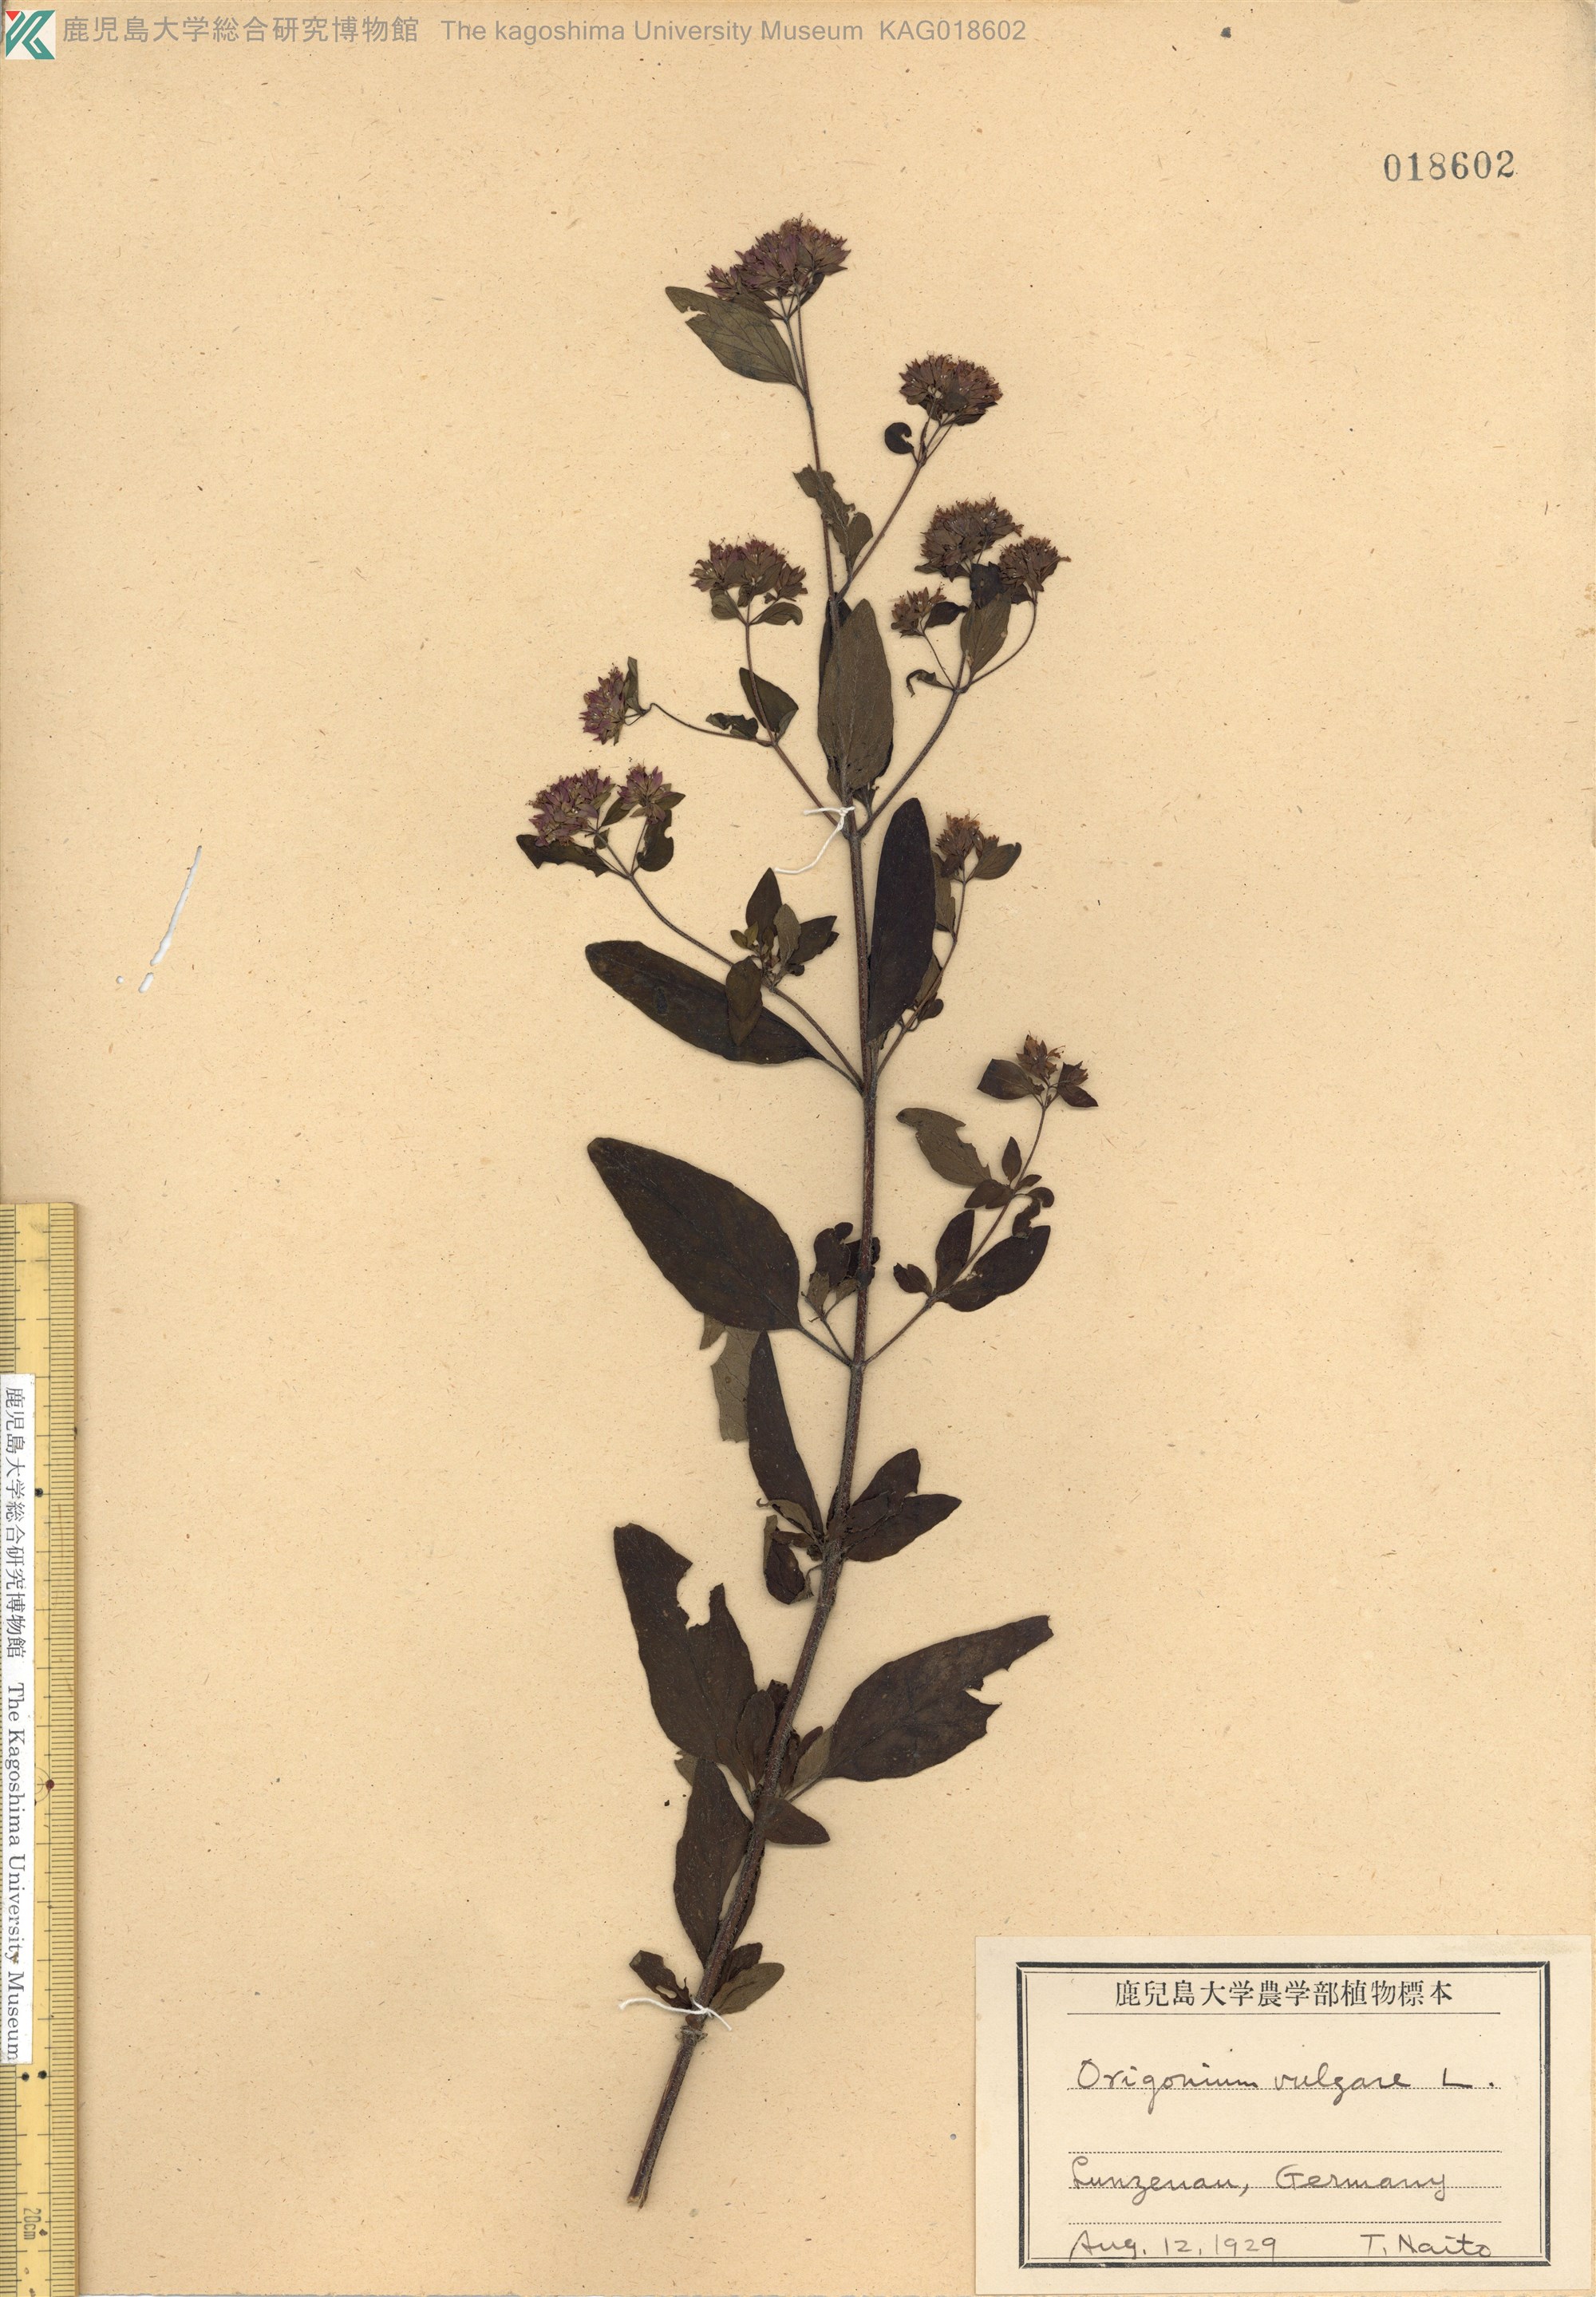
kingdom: Plantae
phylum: Tracheophyta
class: Magnoliopsida
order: Lamiales
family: Lamiaceae
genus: Origanum
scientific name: Origanum vulgare
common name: Wild marjoram
